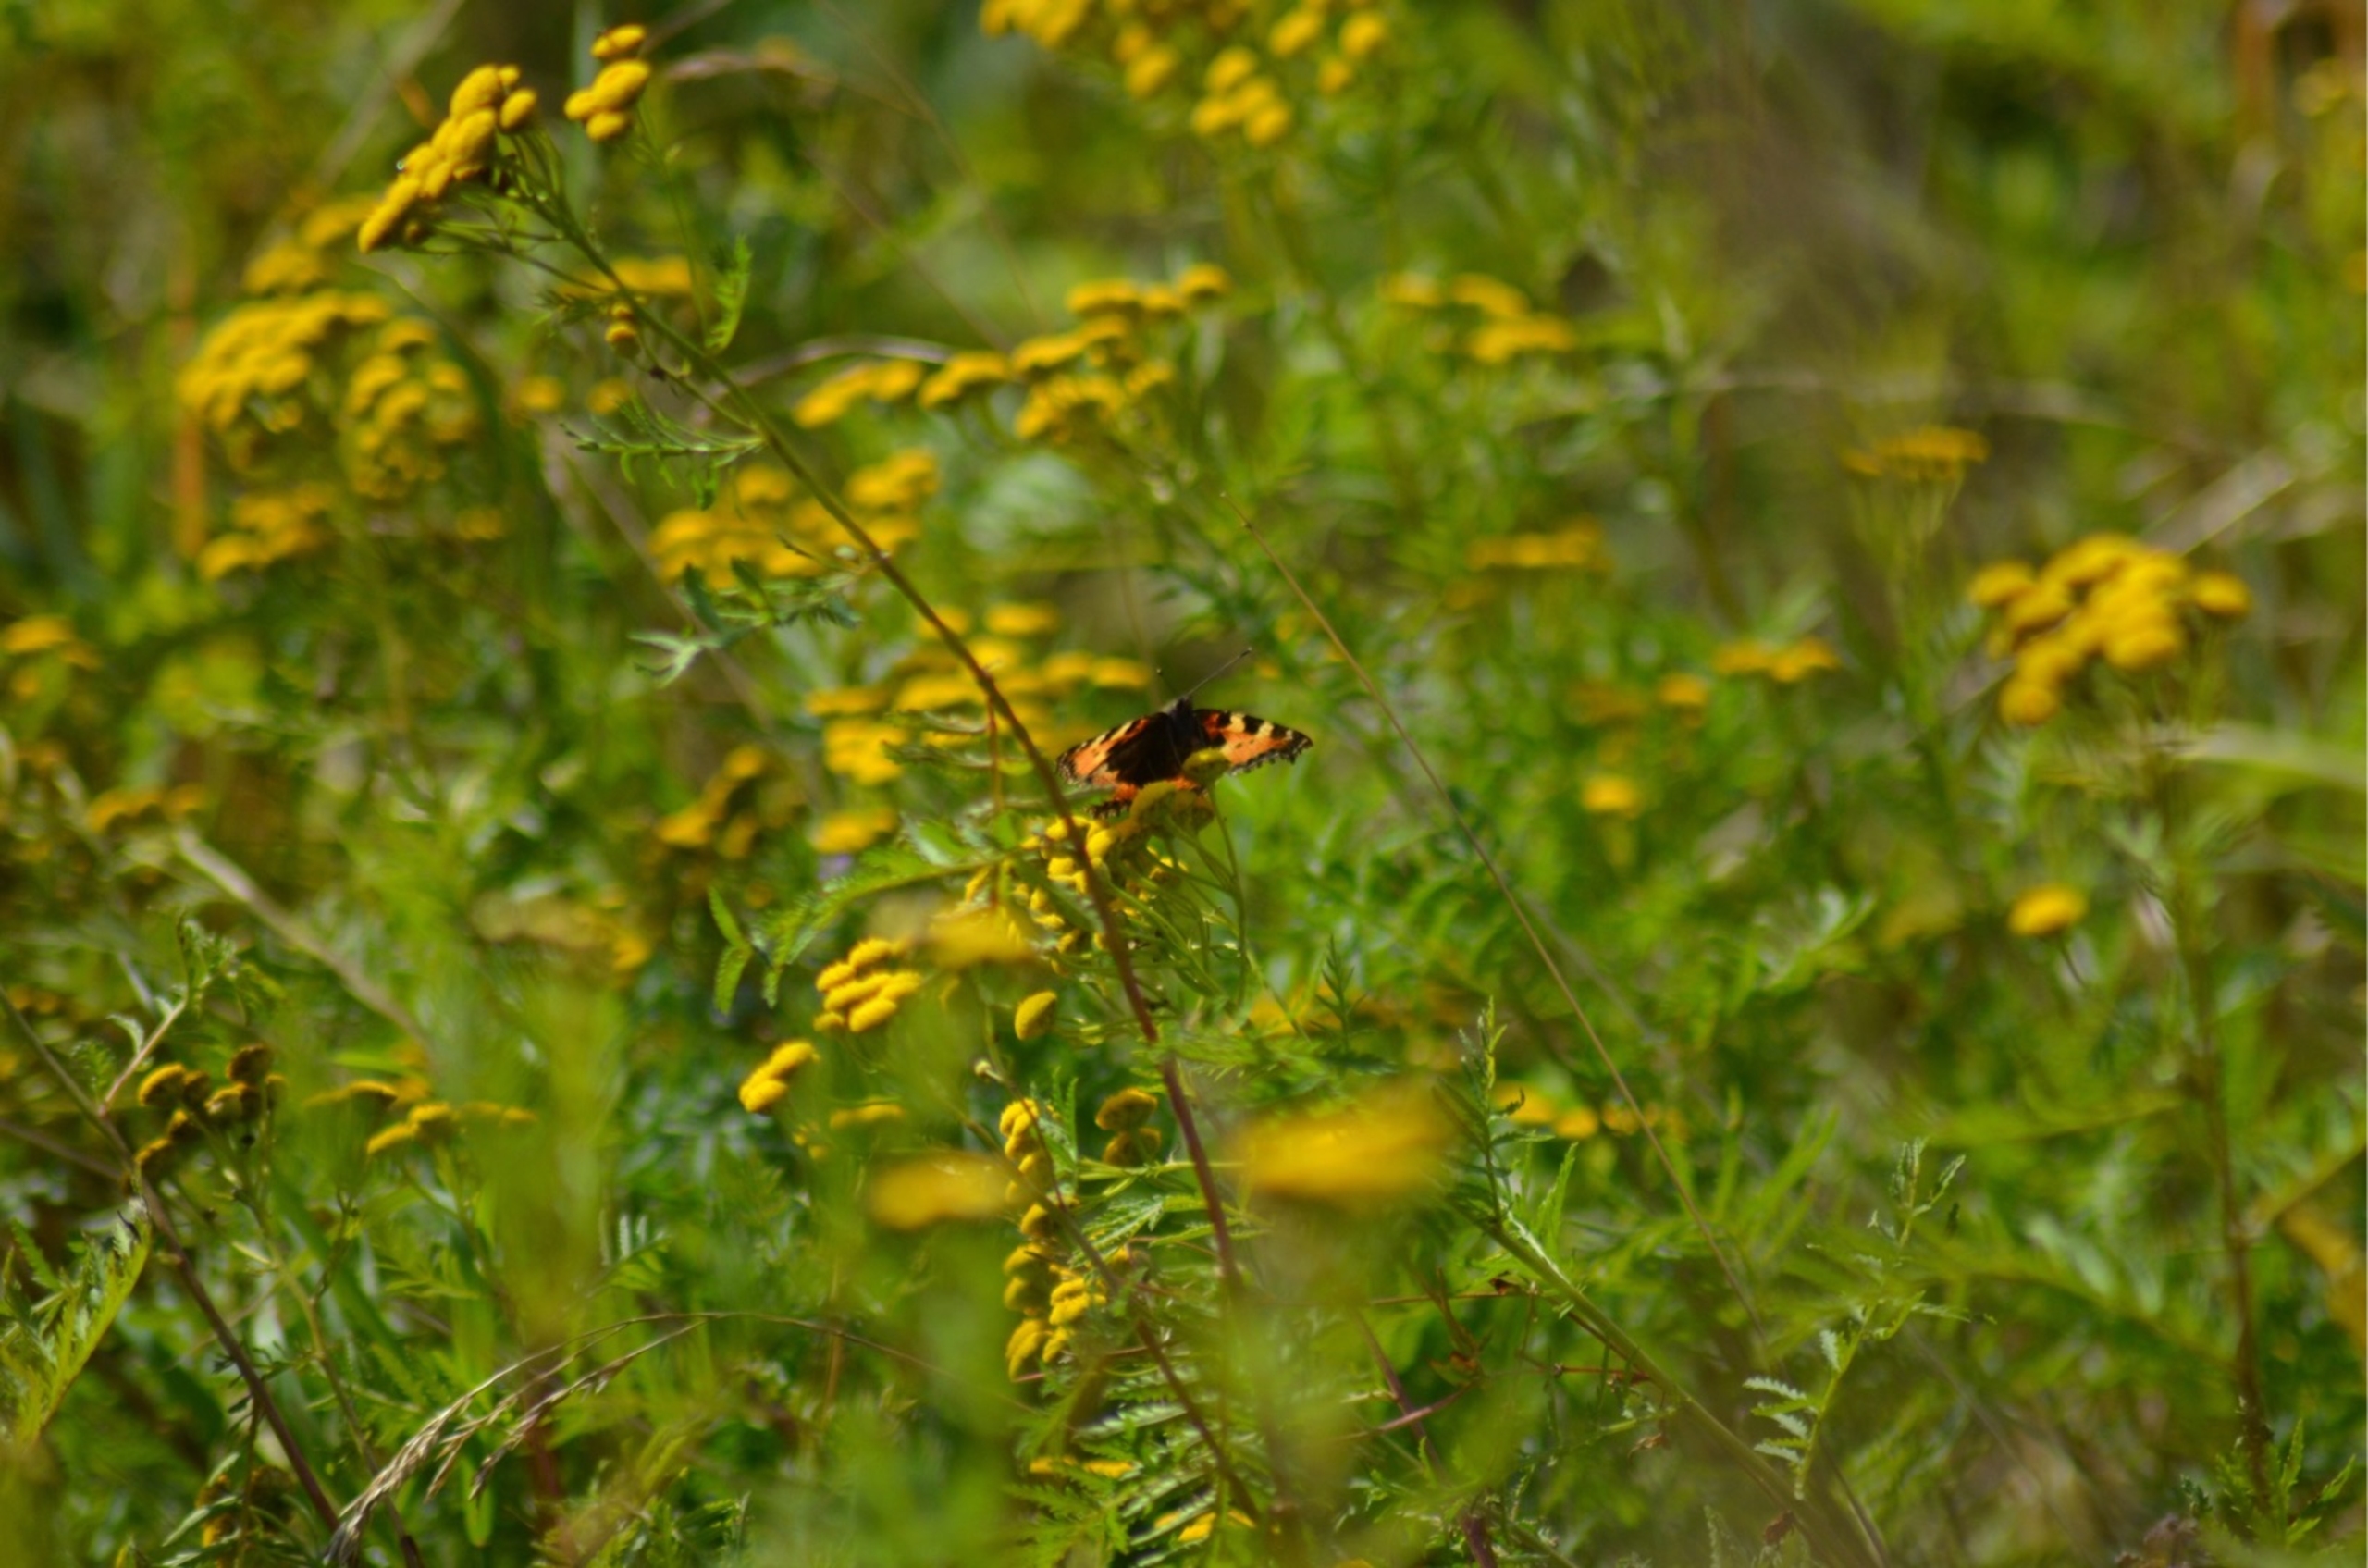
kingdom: Animalia
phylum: Arthropoda
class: Insecta
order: Lepidoptera
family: Nymphalidae
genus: Aglais
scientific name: Aglais urticae
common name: Nældens takvinge
